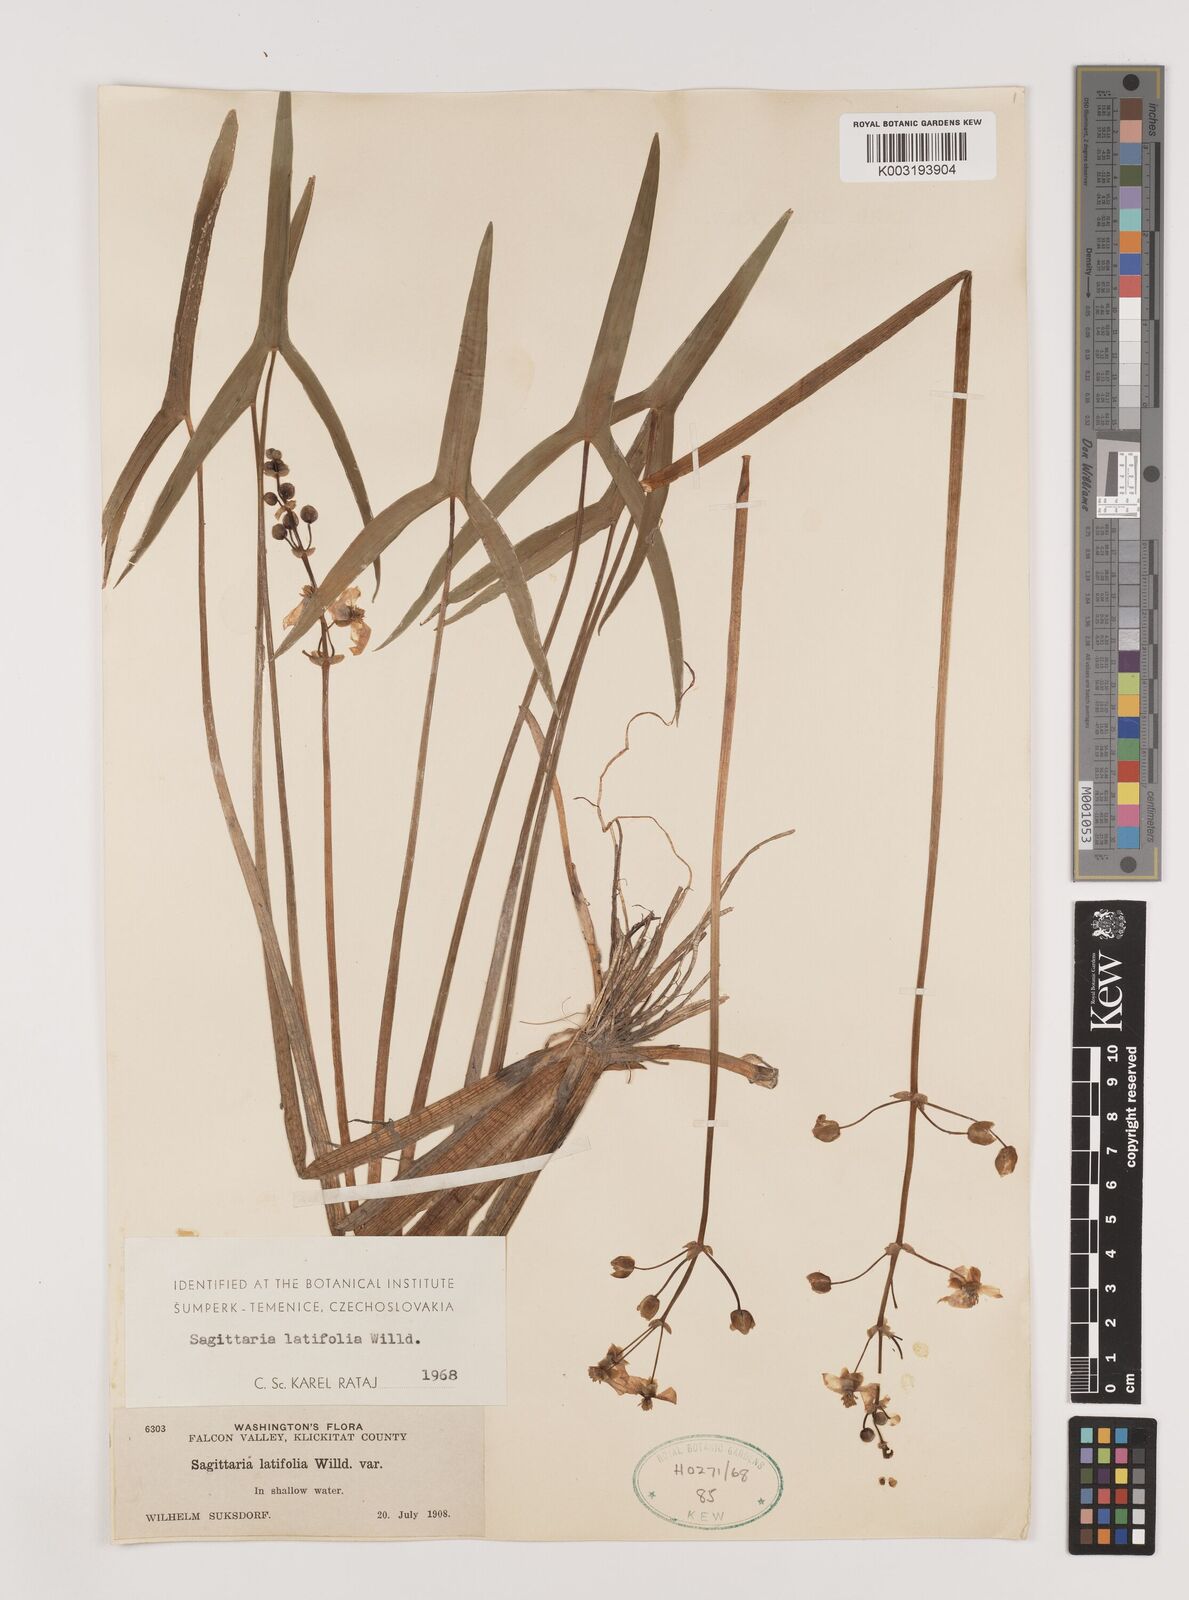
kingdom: Plantae
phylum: Tracheophyta
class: Liliopsida
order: Alismatales
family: Alismataceae
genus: Sagittaria
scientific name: Sagittaria latifolia
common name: Duck-potato
